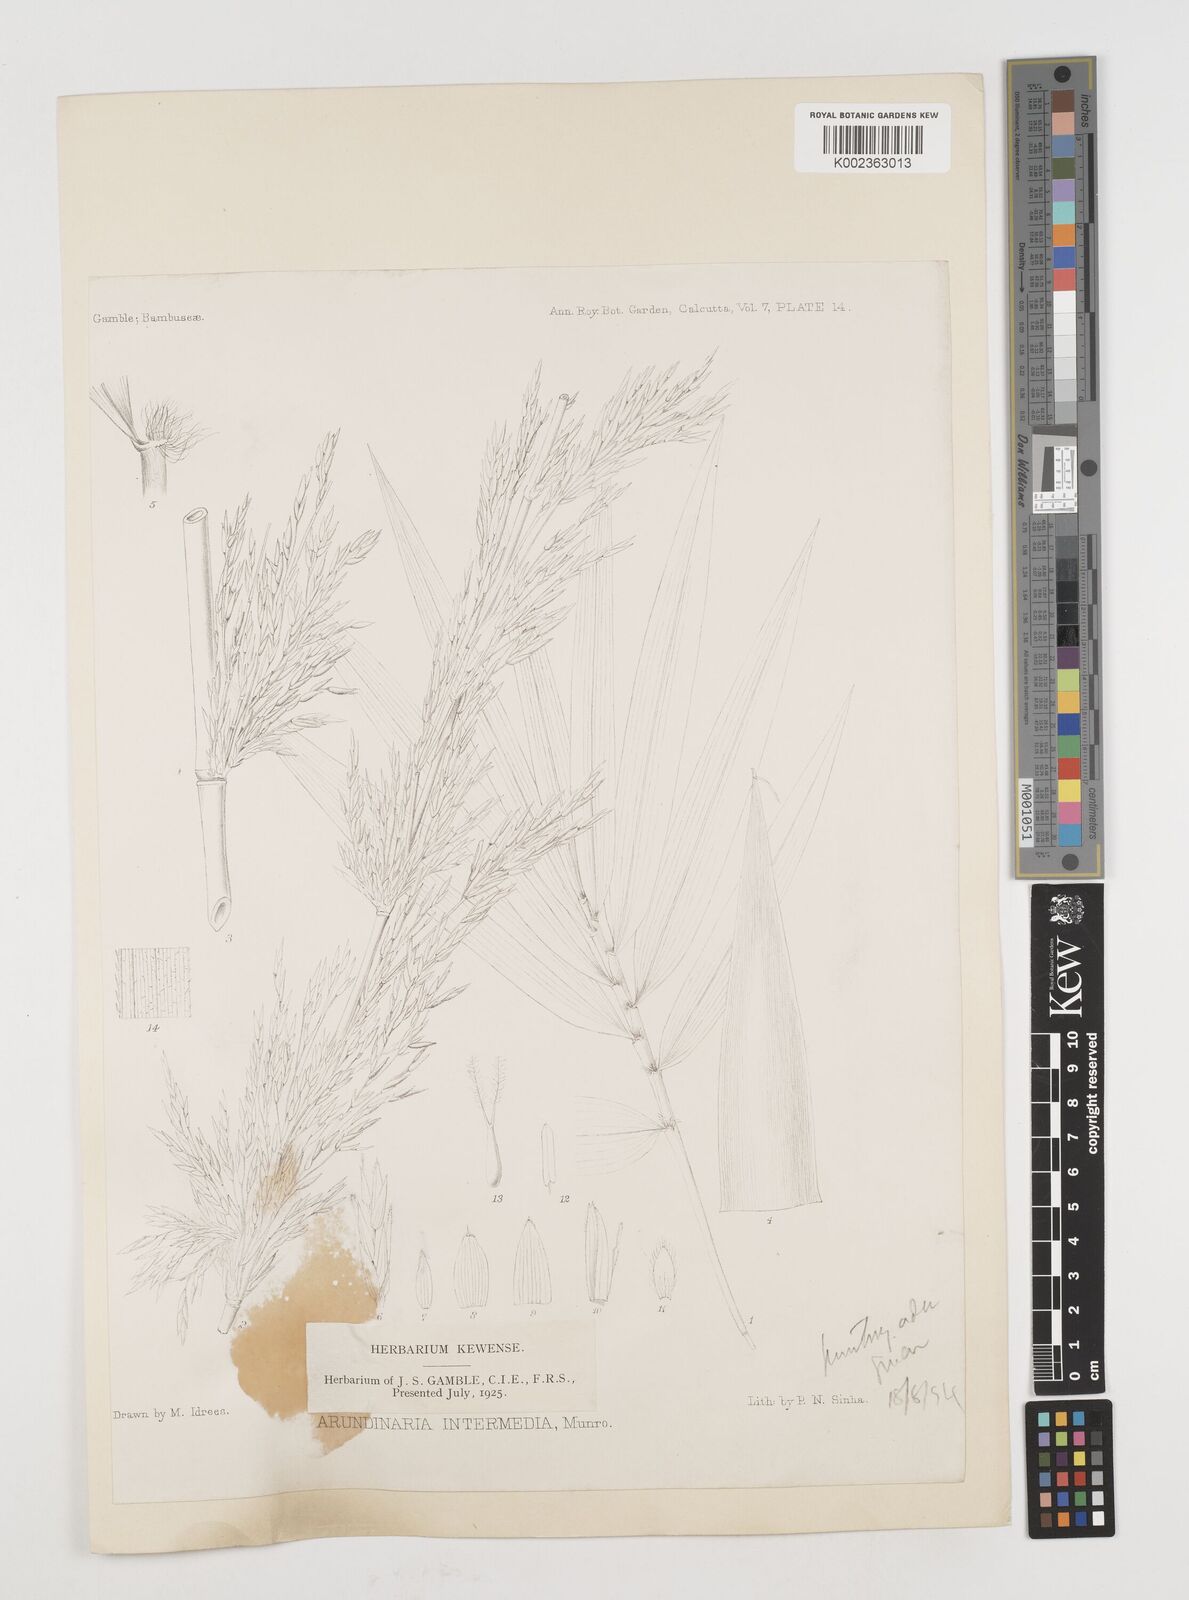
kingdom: Plantae
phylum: Tracheophyta
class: Liliopsida
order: Poales
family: Poaceae
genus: Drepanostachyum
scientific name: Drepanostachyum intermedium
